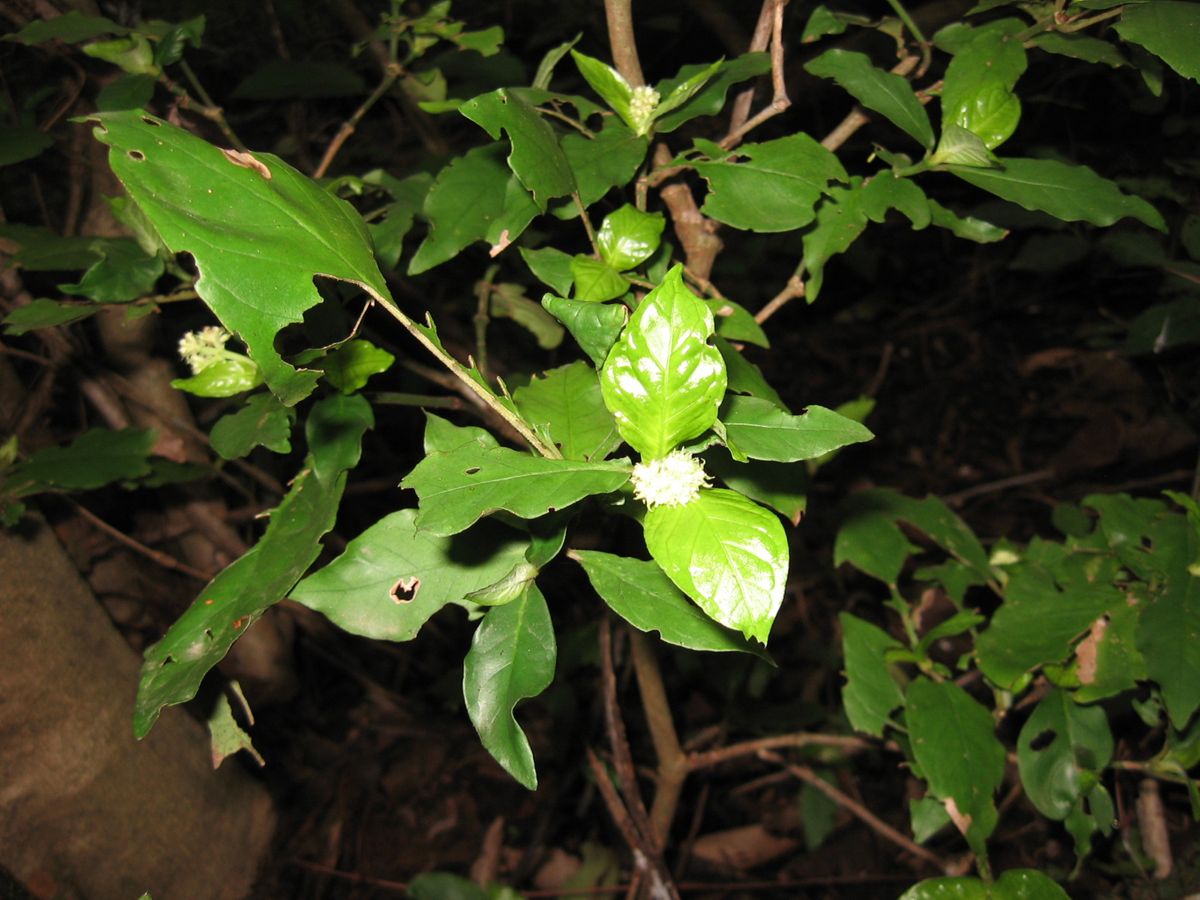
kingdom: Plantae
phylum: Tracheophyta
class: Magnoliopsida
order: Gentianales
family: Rubiaceae
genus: Psychotria
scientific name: Psychotria horizontalis
